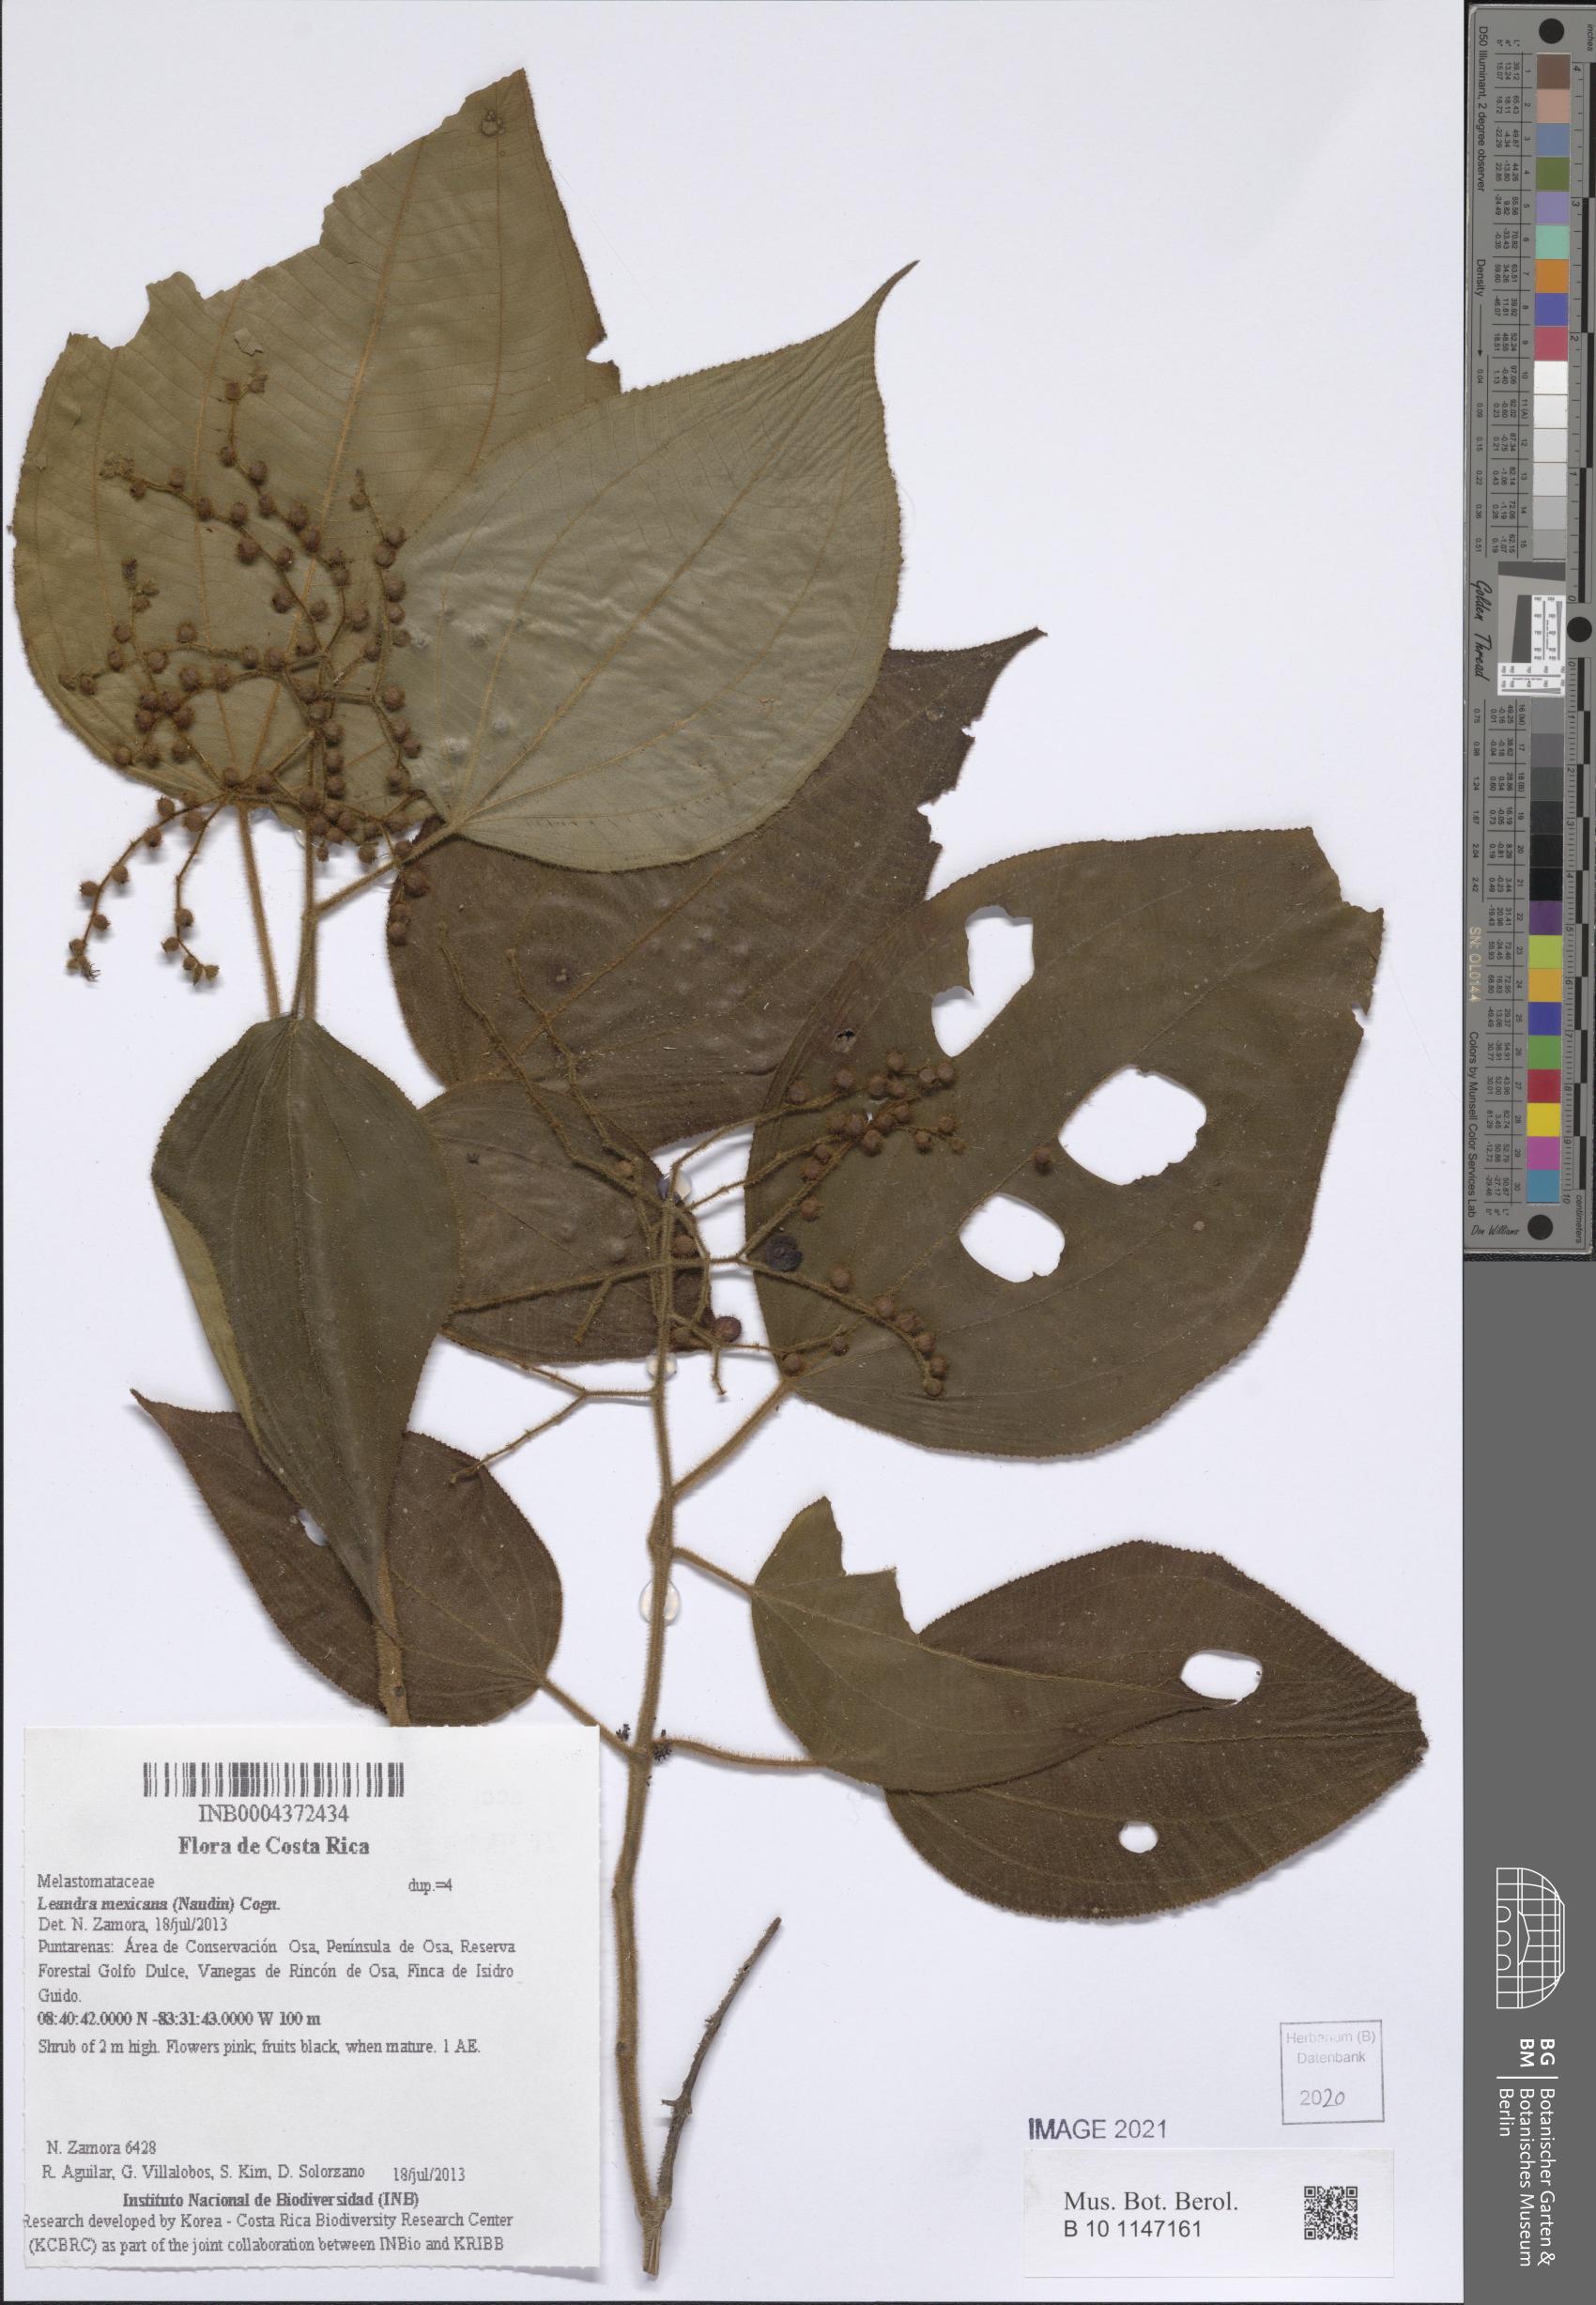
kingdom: Plantae
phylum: Tracheophyta
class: Magnoliopsida
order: Myrtales
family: Melastomataceae
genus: Miconia
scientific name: Miconia secunmexicana
